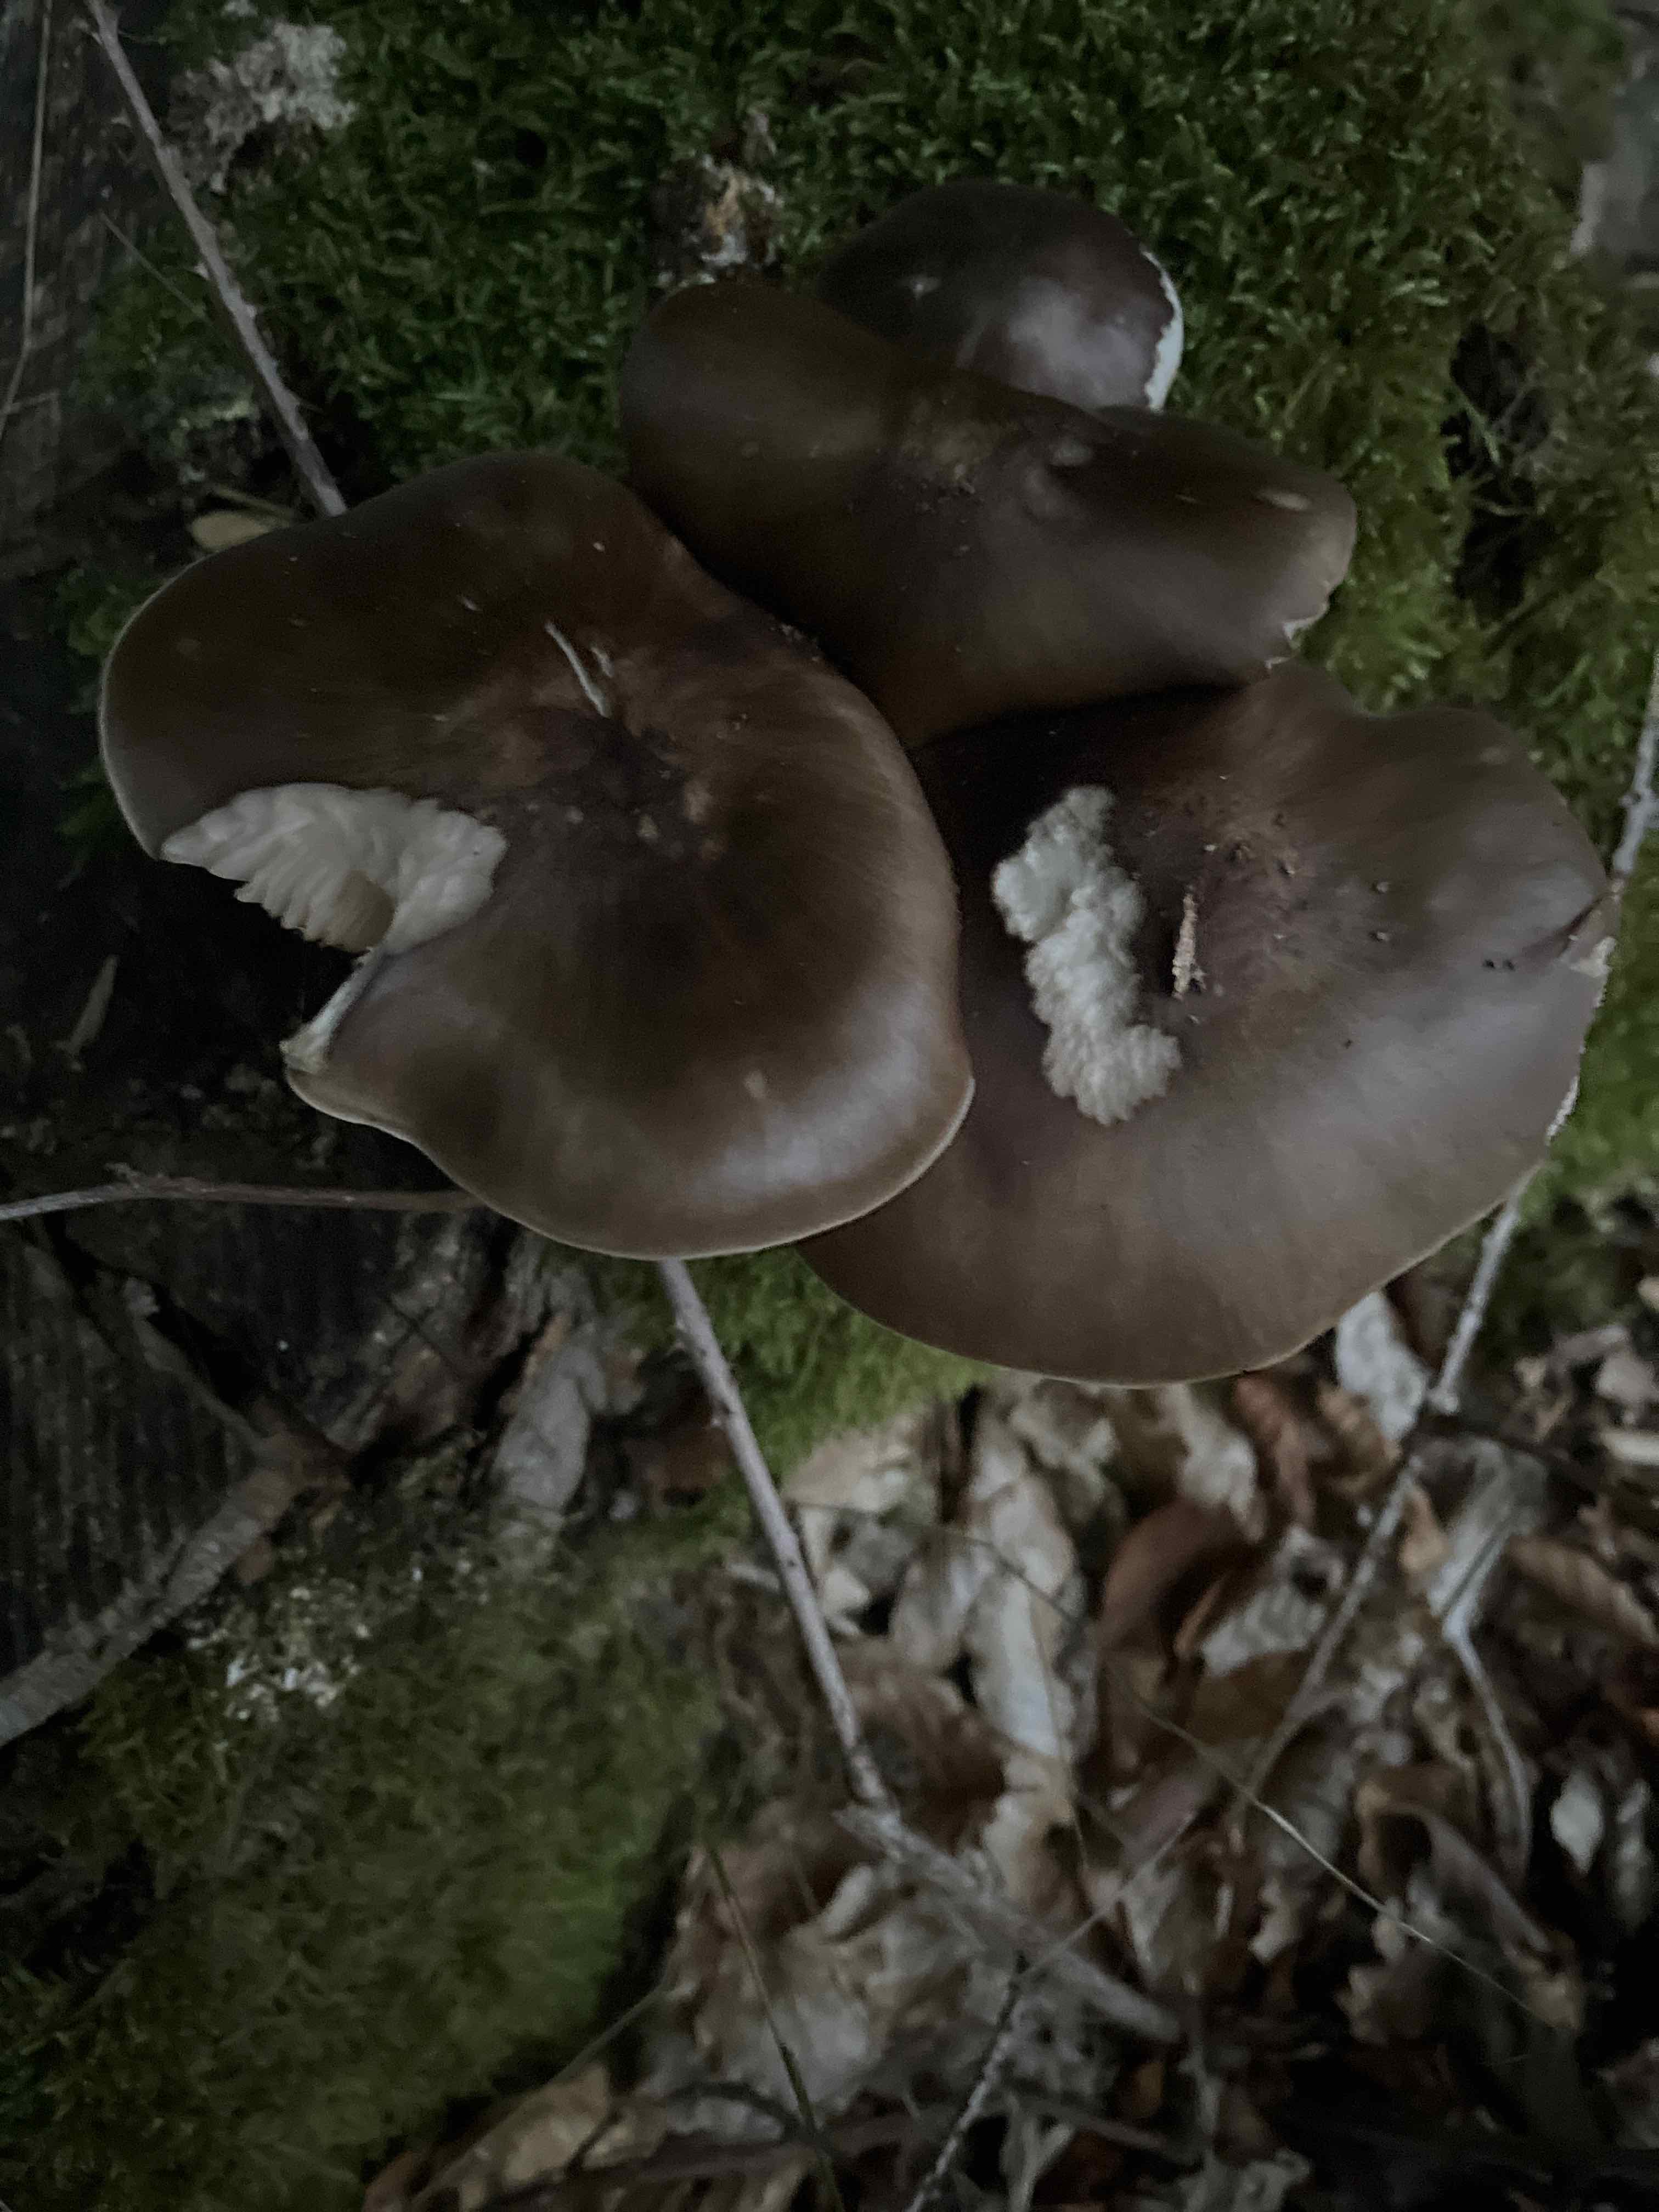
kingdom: Fungi
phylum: Basidiomycota
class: Agaricomycetes
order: Agaricales
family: Pluteaceae
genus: Pluteus
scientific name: Pluteus cervinus
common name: sodfarvet skærmhat
